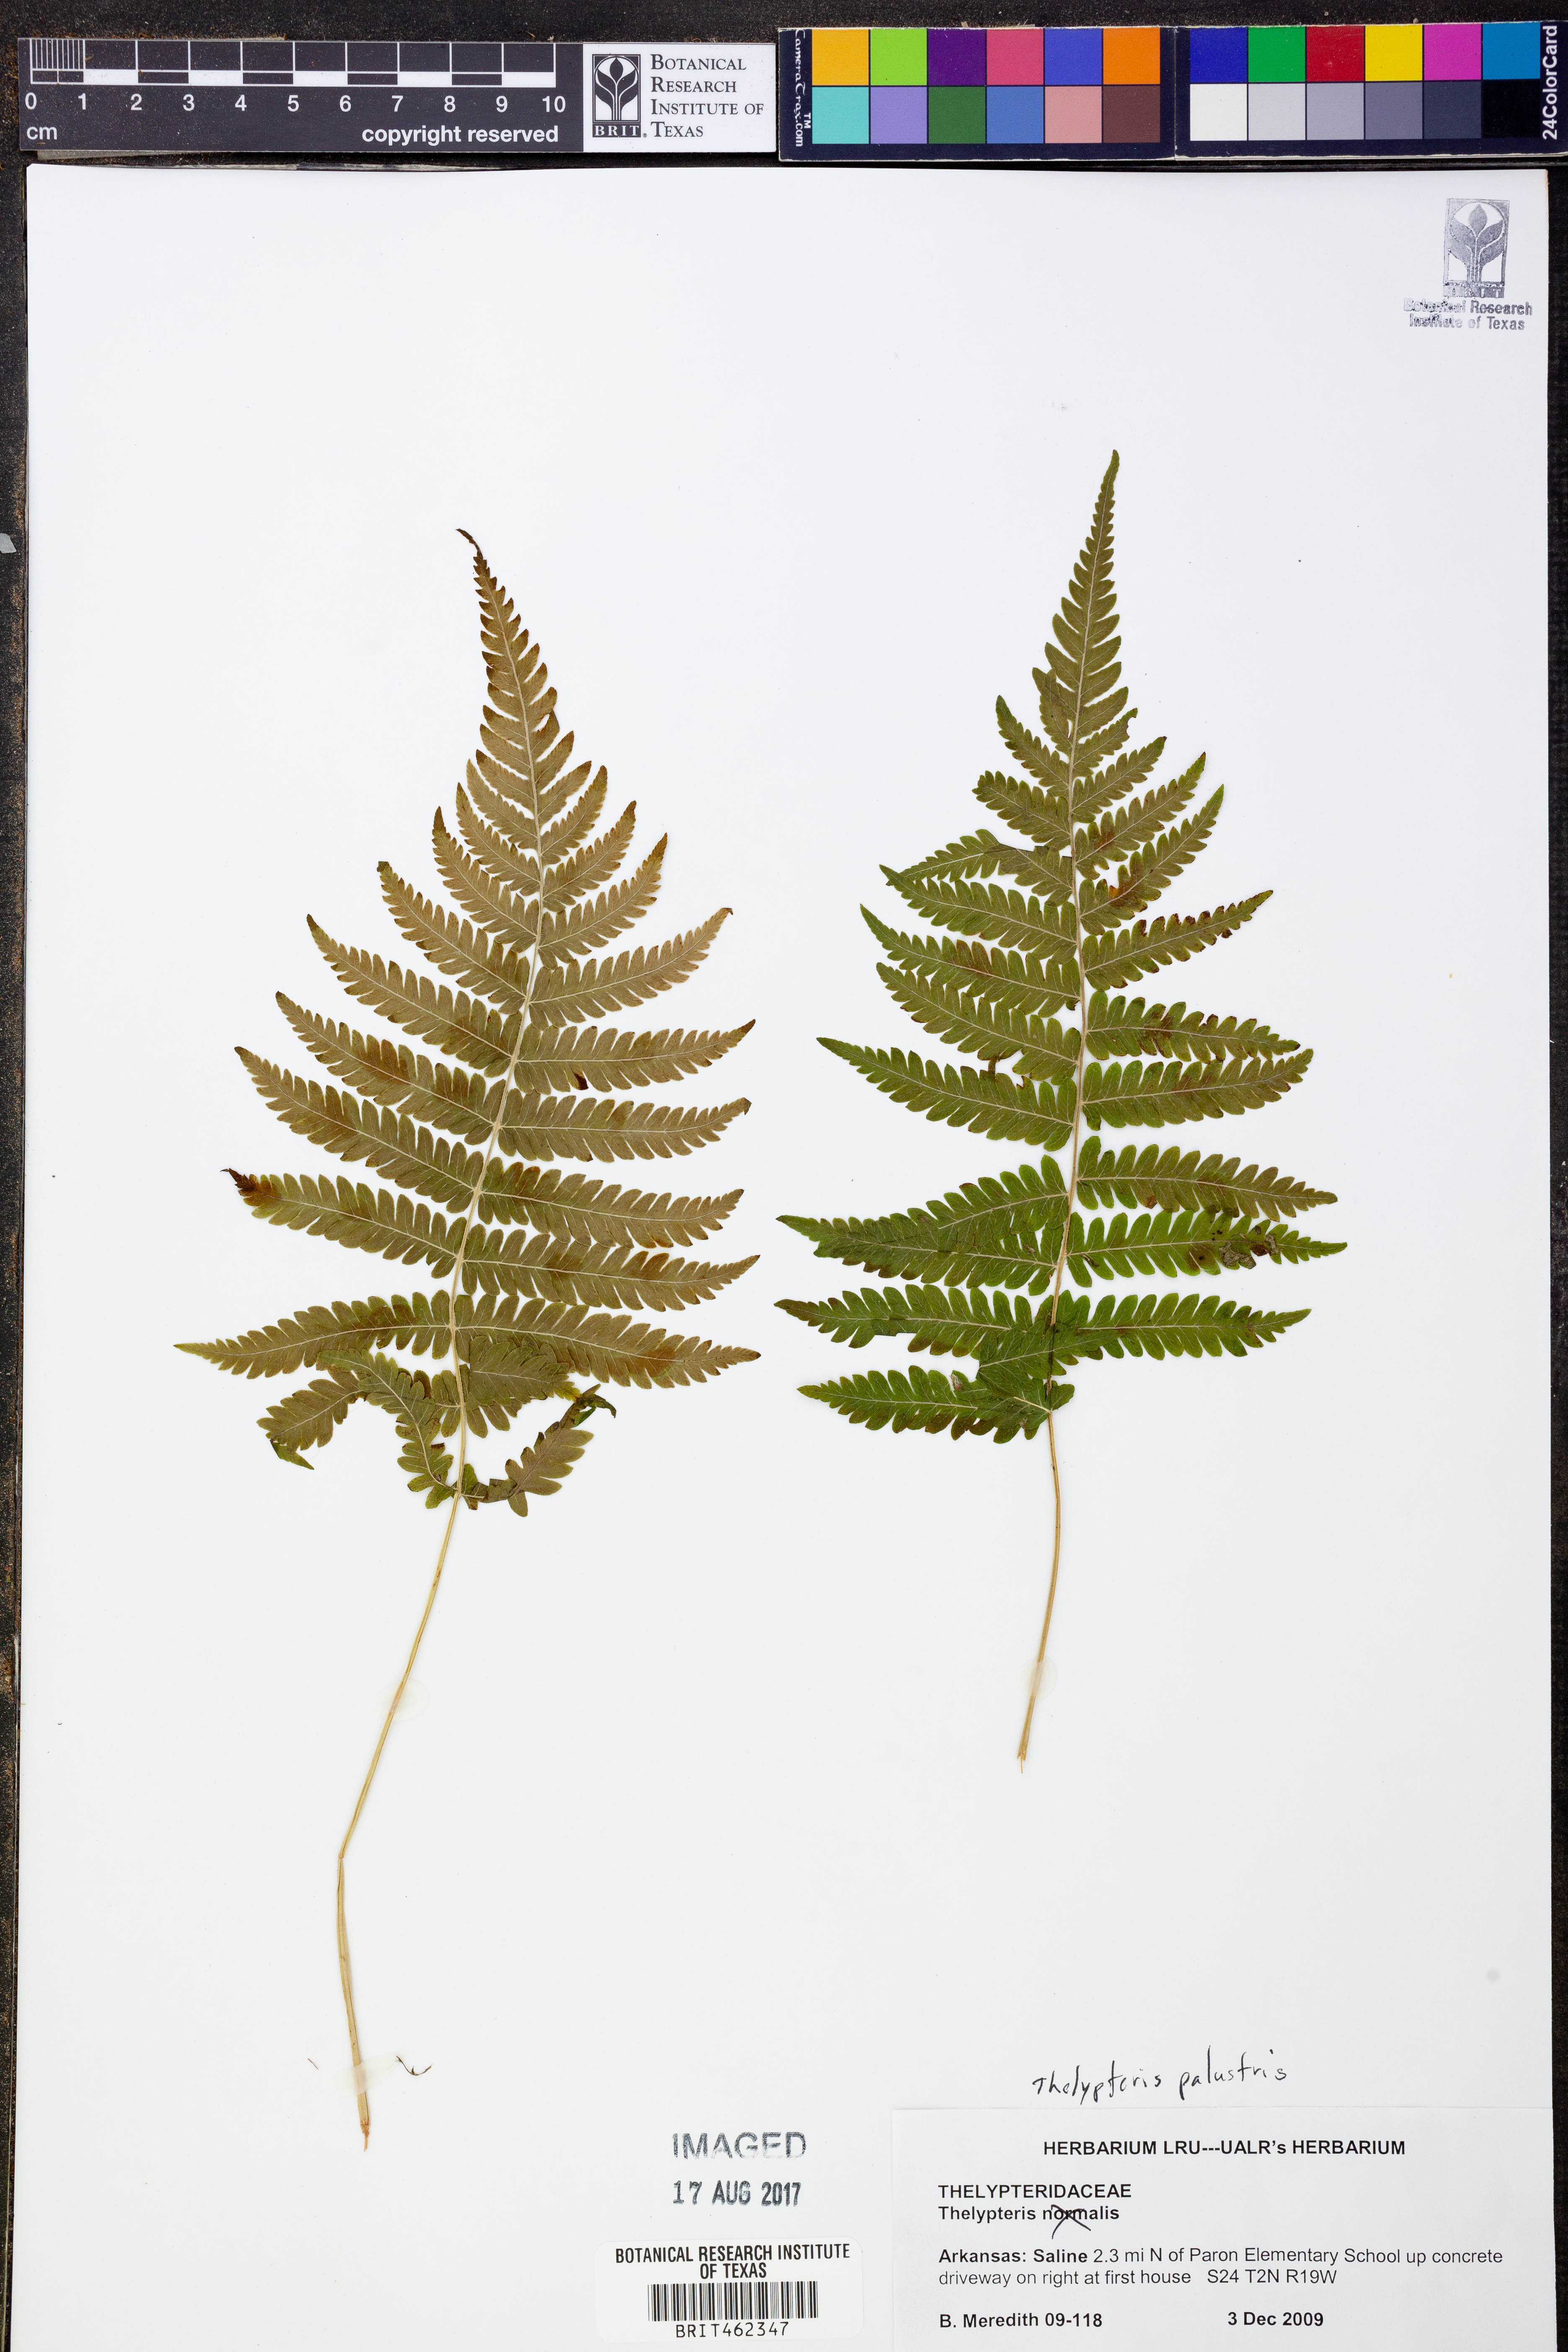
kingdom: Plantae
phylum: Tracheophyta
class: Polypodiopsida
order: Polypodiales
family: Thelypteridaceae
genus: Thelypteris
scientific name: Thelypteris palustris
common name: Marsh fern
